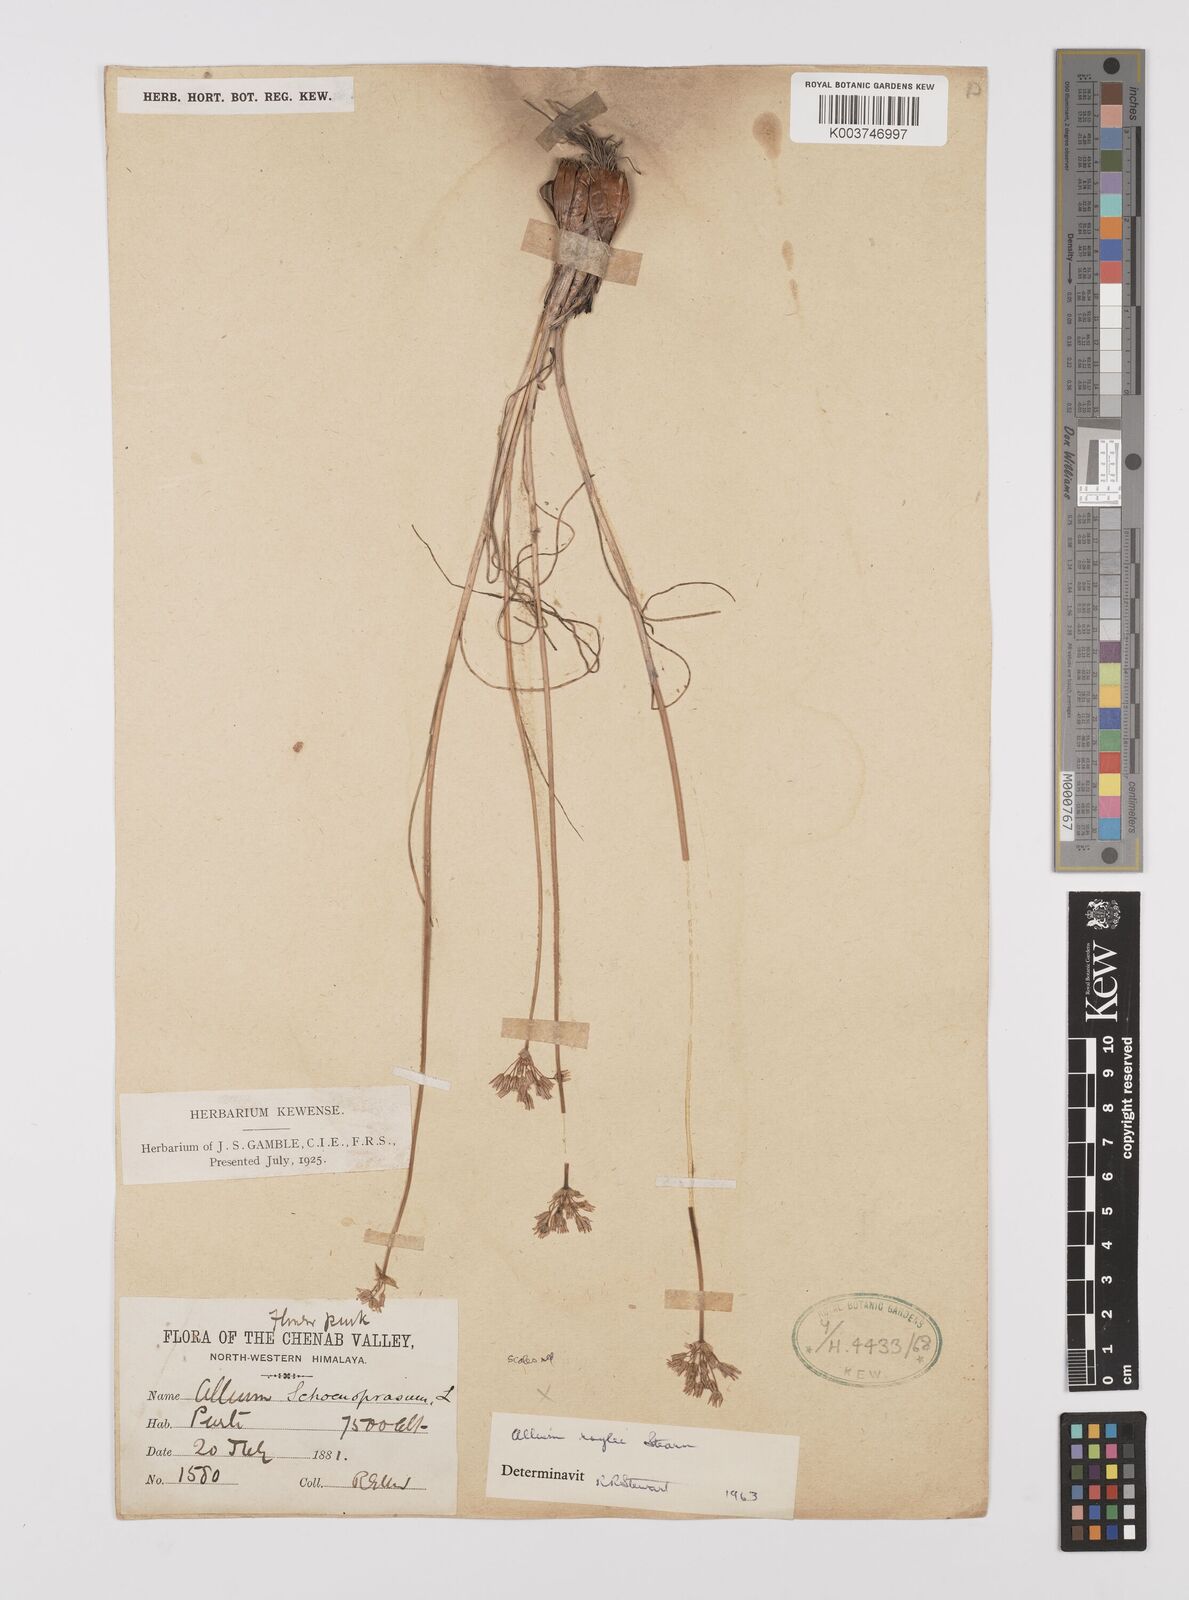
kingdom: Plantae
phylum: Tracheophyta
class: Liliopsida
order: Asparagales
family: Amaryllidaceae
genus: Allium
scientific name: Allium roylei
